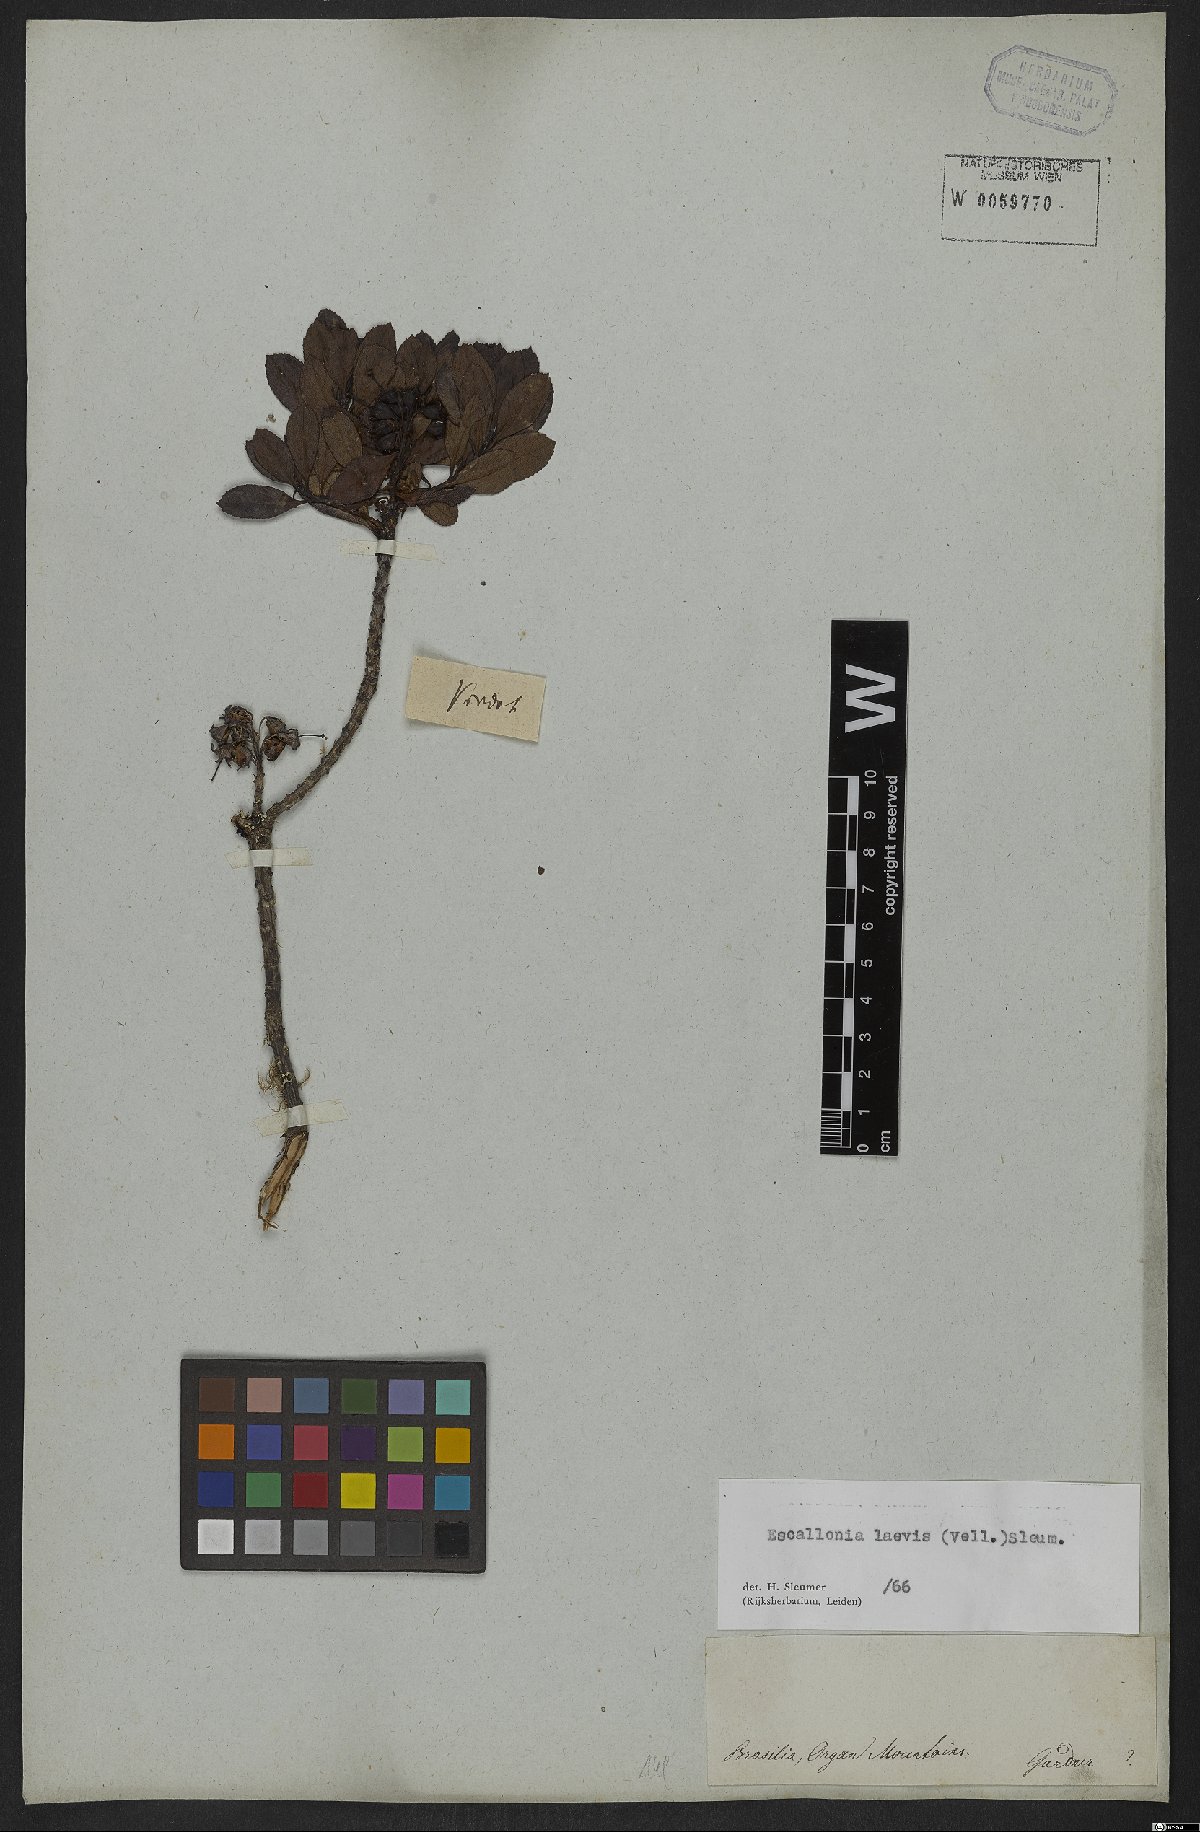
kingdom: Plantae
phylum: Tracheophyta
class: Magnoliopsida
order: Escalloniales
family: Escalloniaceae
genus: Escallonia
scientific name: Escallonia laevis
